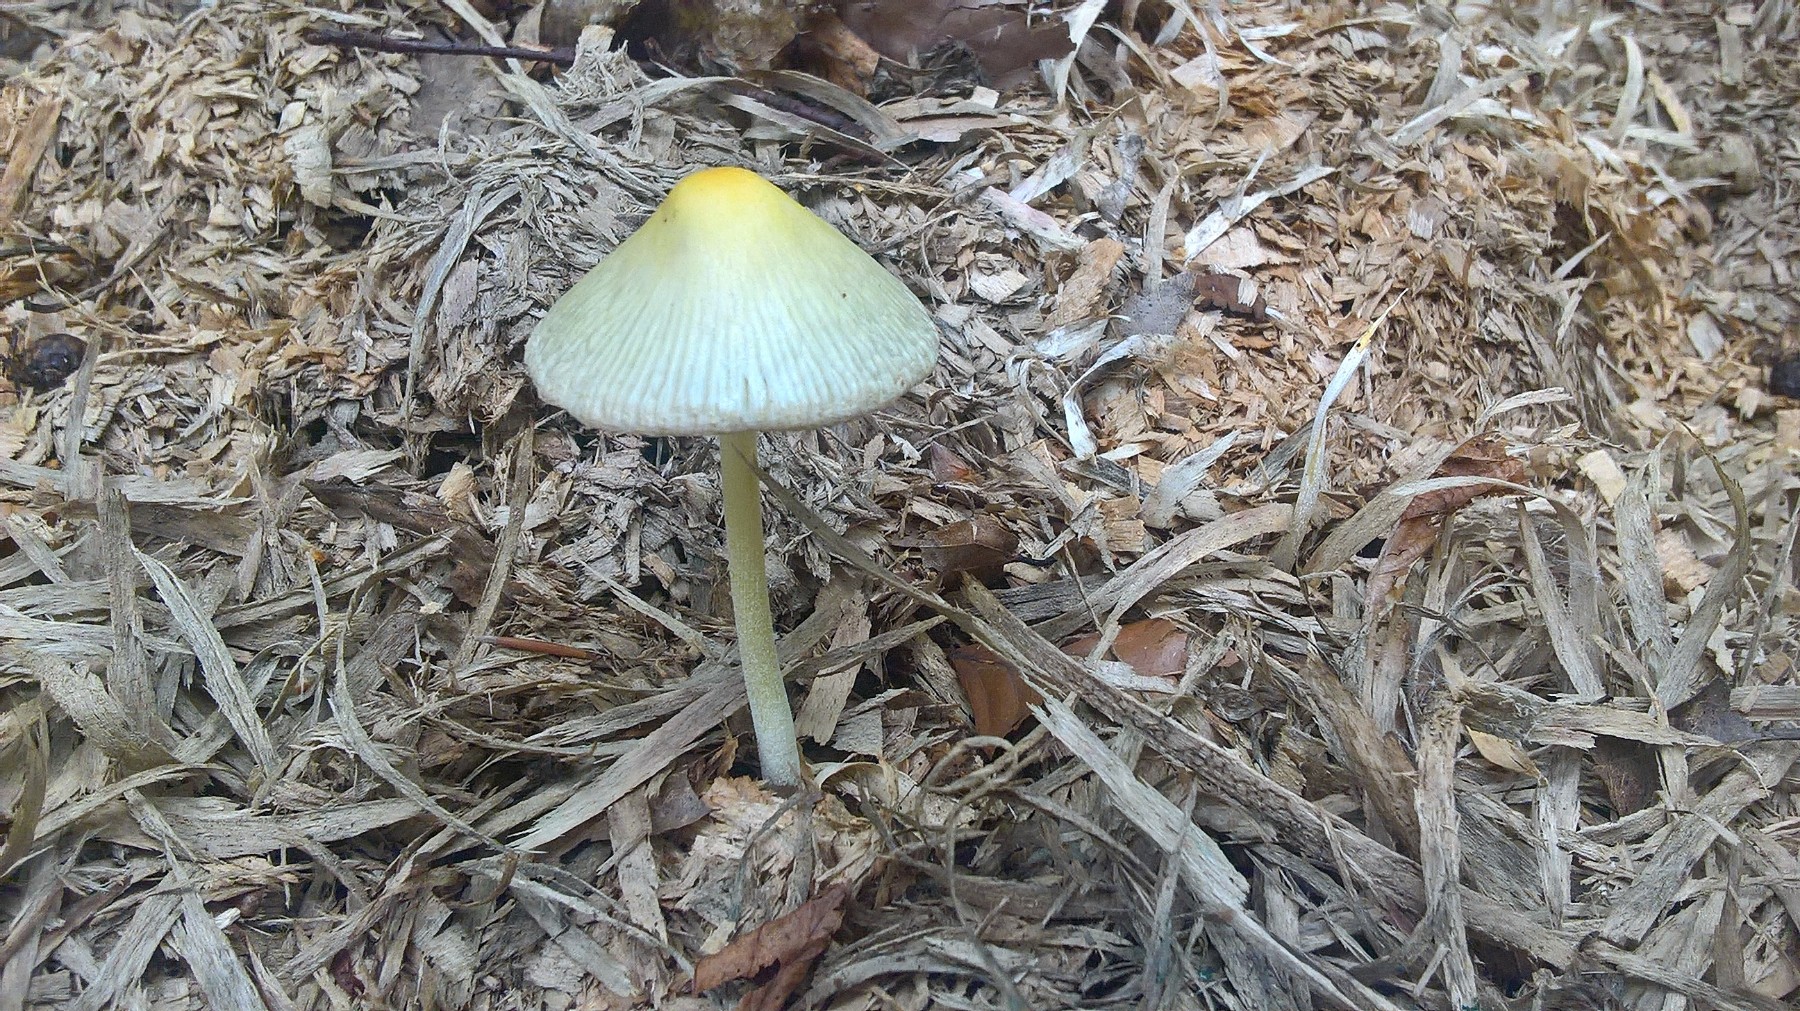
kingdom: Fungi
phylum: Basidiomycota
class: Agaricomycetes
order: Agaricales
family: Bolbitiaceae
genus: Bolbitius
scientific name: Bolbitius titubans
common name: almindelig gulhat
